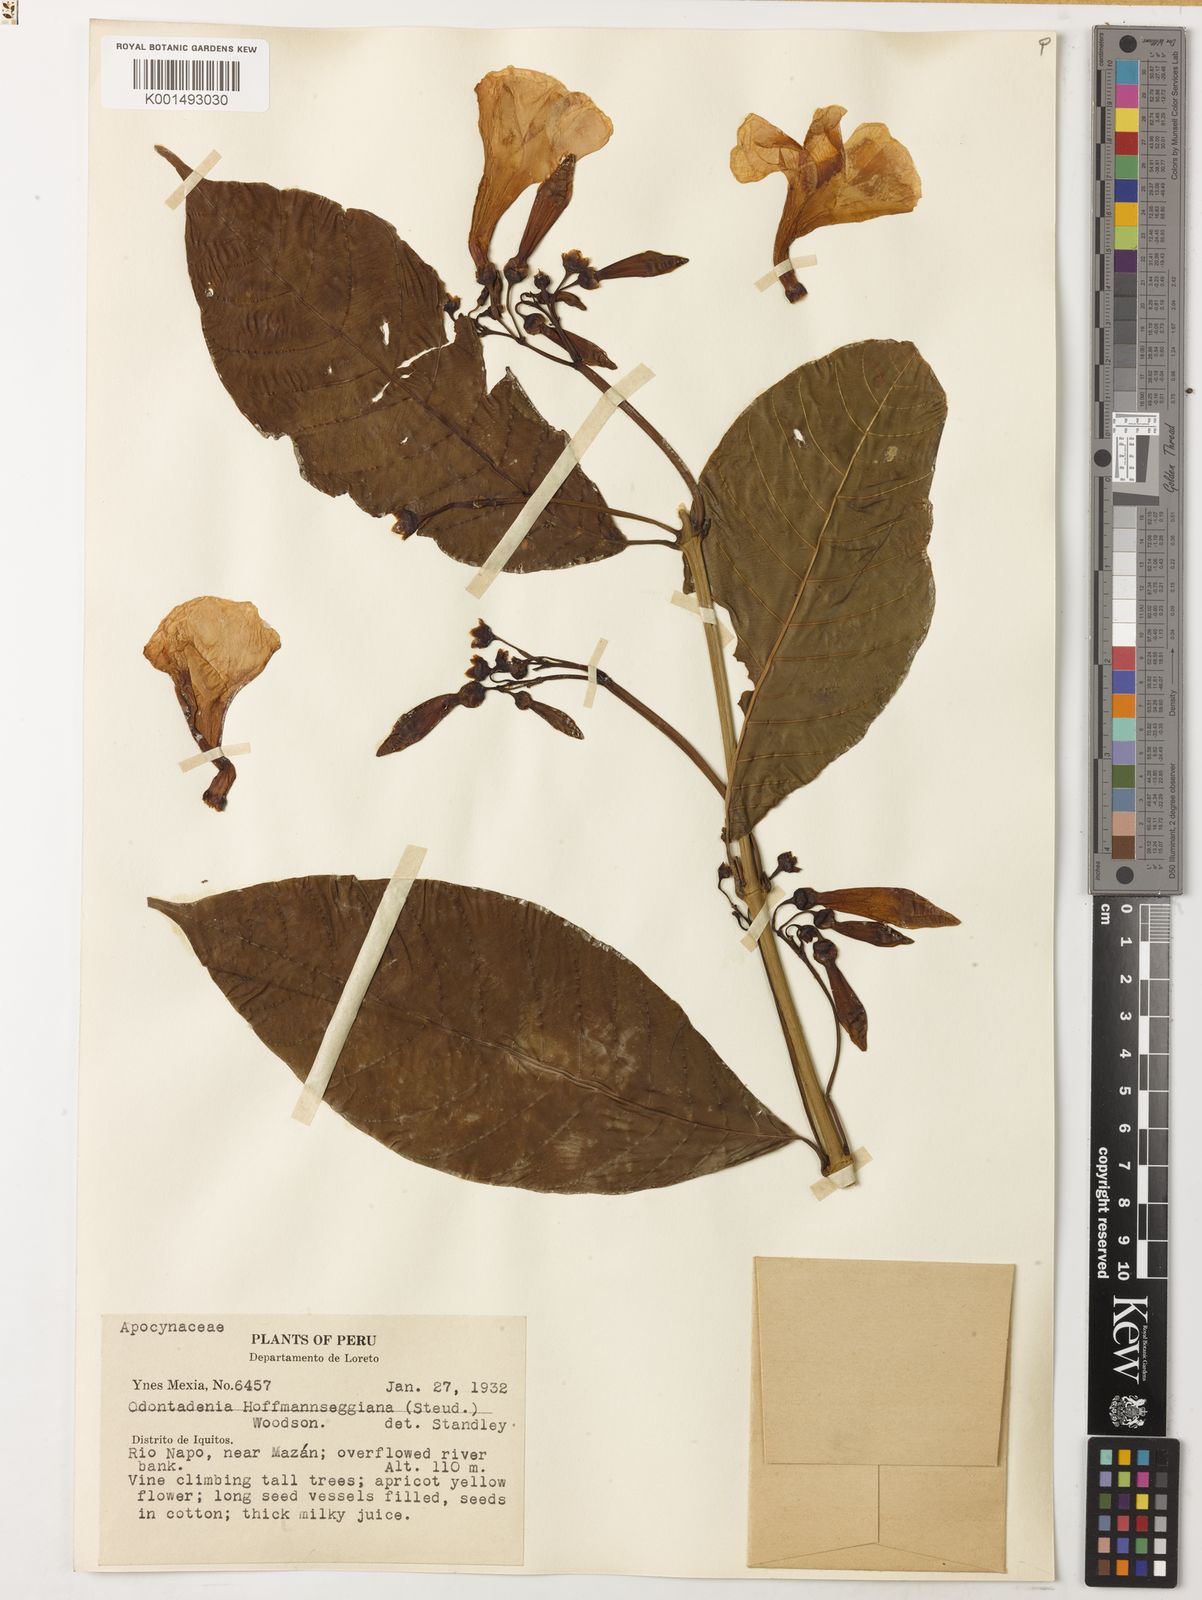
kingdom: Plantae
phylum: Tracheophyta
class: Magnoliopsida
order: Gentianales
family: Apocynaceae
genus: Odontadenia
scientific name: Odontadenia semidigyna
